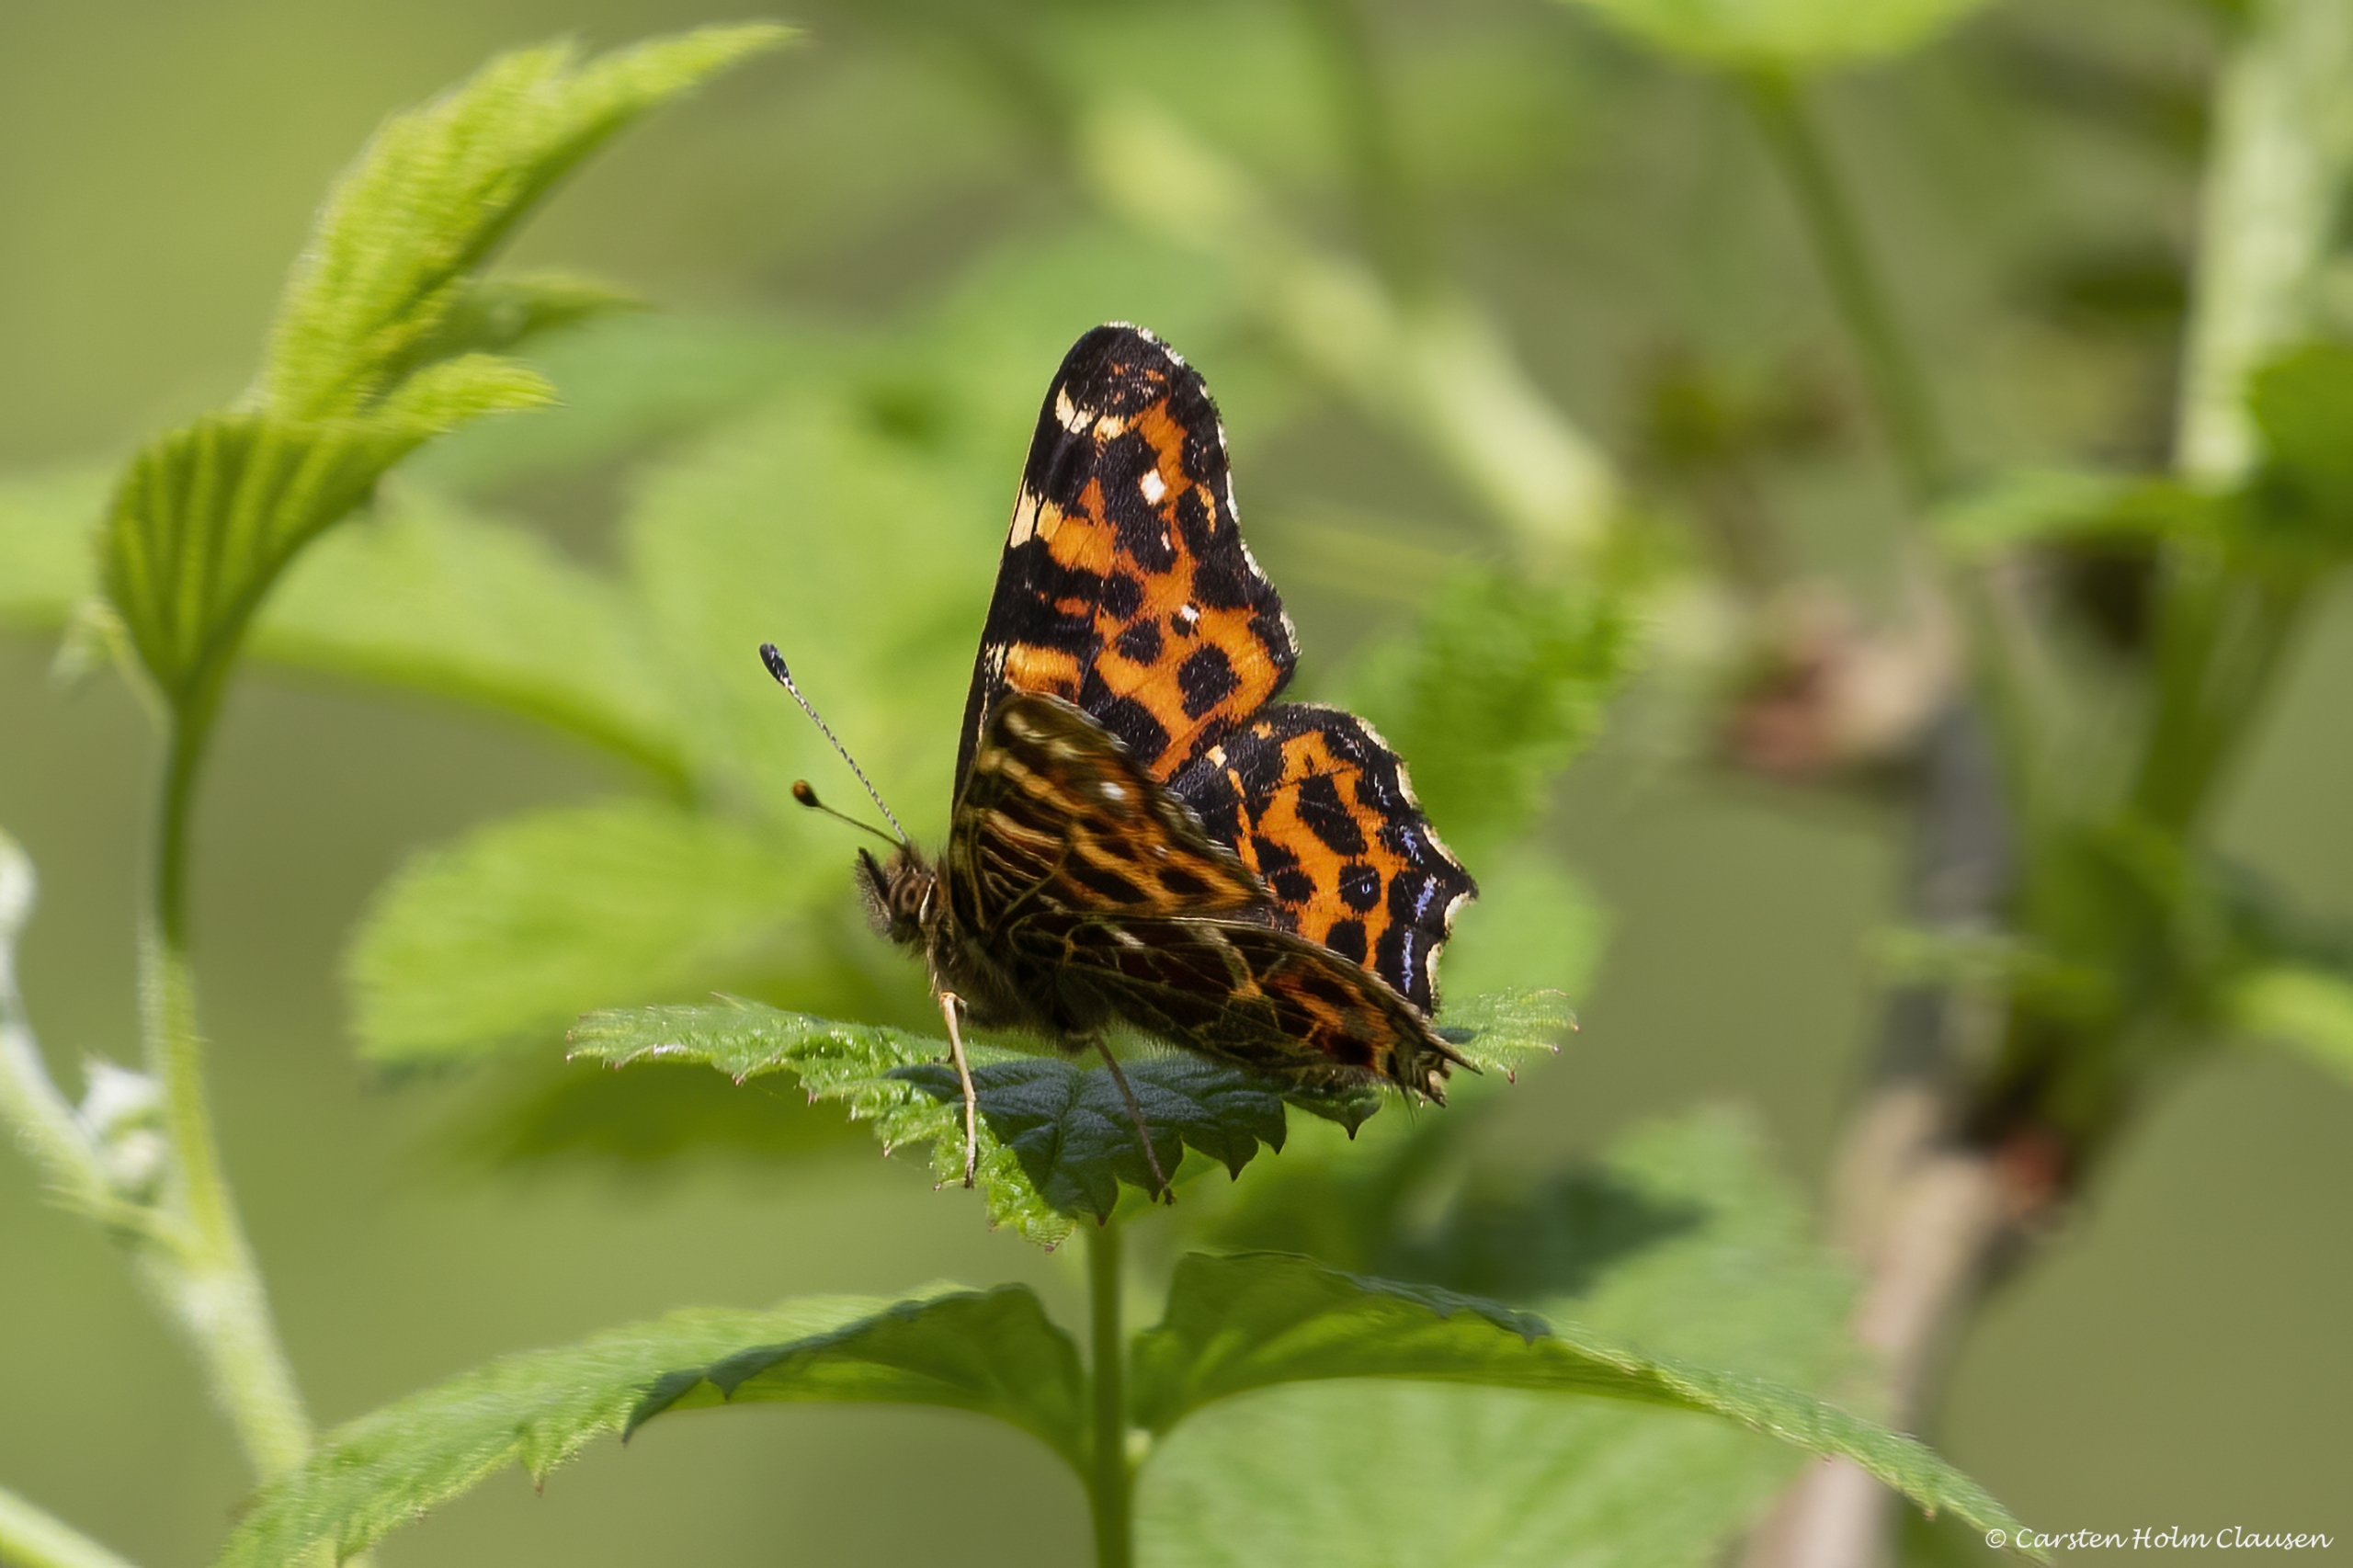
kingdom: Animalia
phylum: Arthropoda
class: Insecta
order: Lepidoptera
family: Nymphalidae
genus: Araschnia
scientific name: Araschnia levana
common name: Nældesommerfugl
